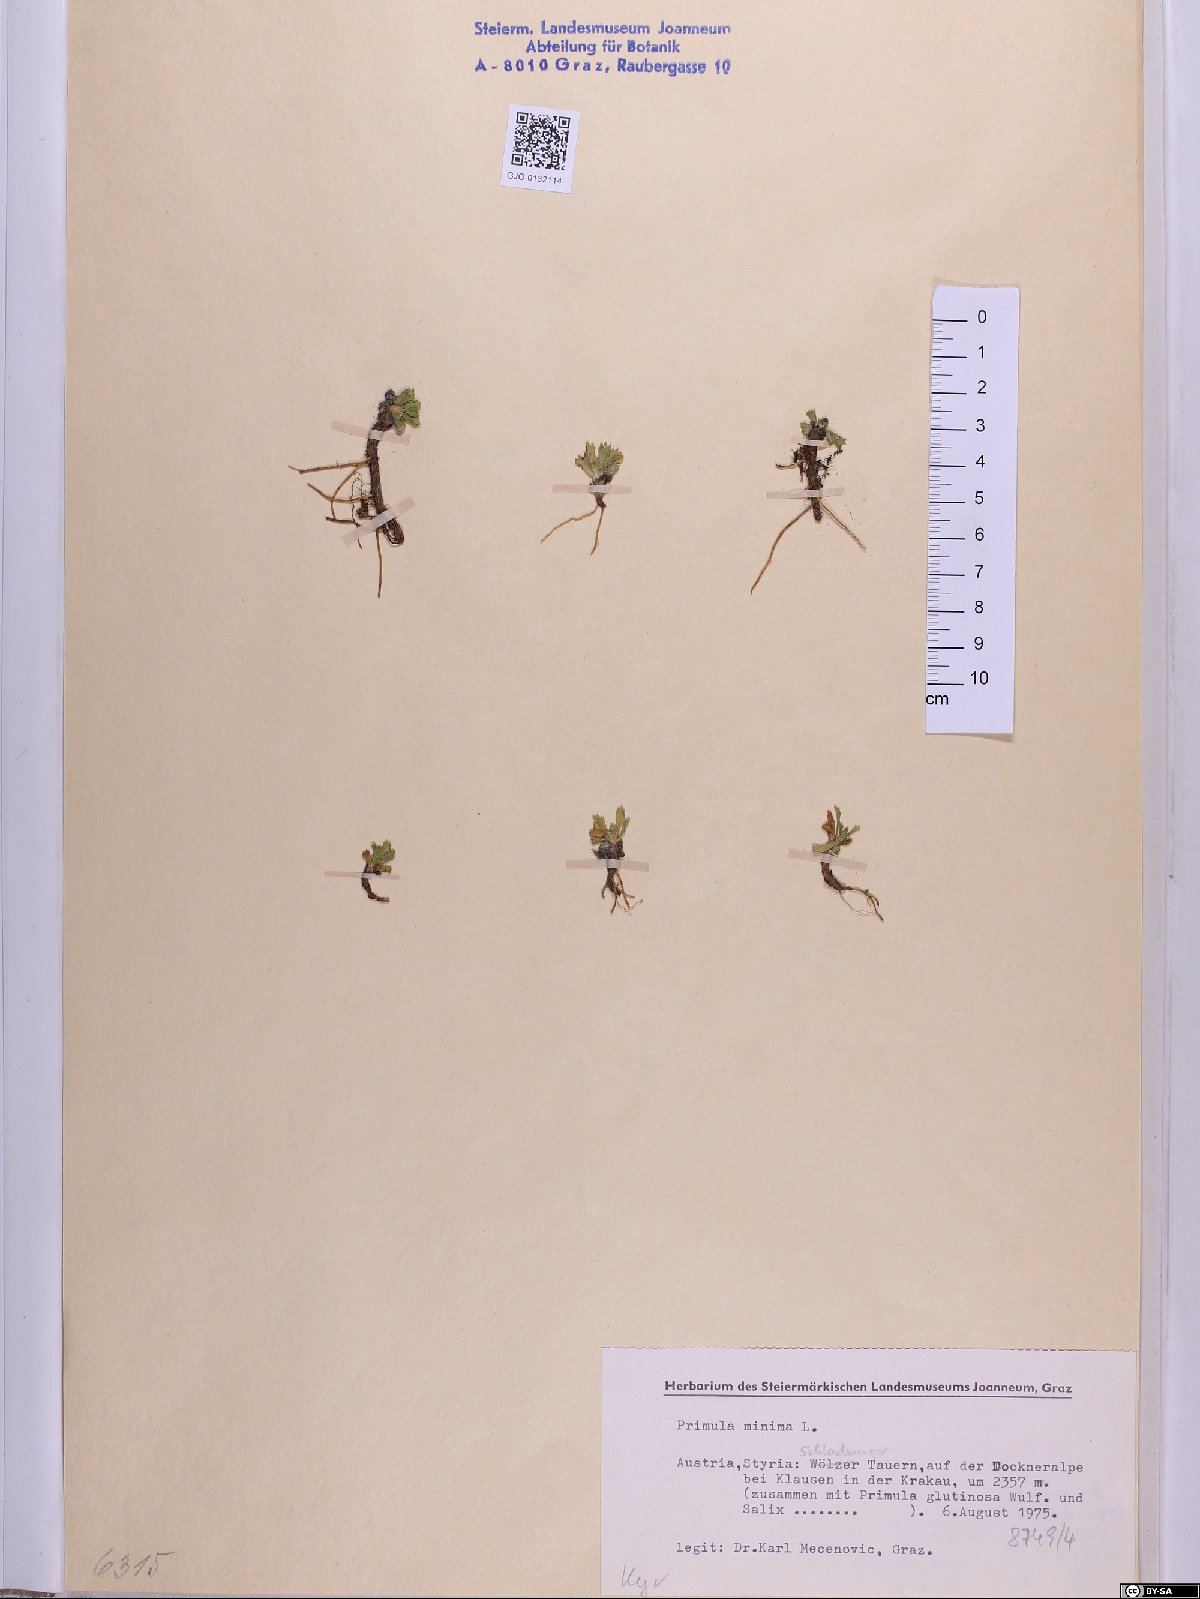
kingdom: Plantae
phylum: Tracheophyta
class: Magnoliopsida
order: Ericales
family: Primulaceae
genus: Primula
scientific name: Primula minima
